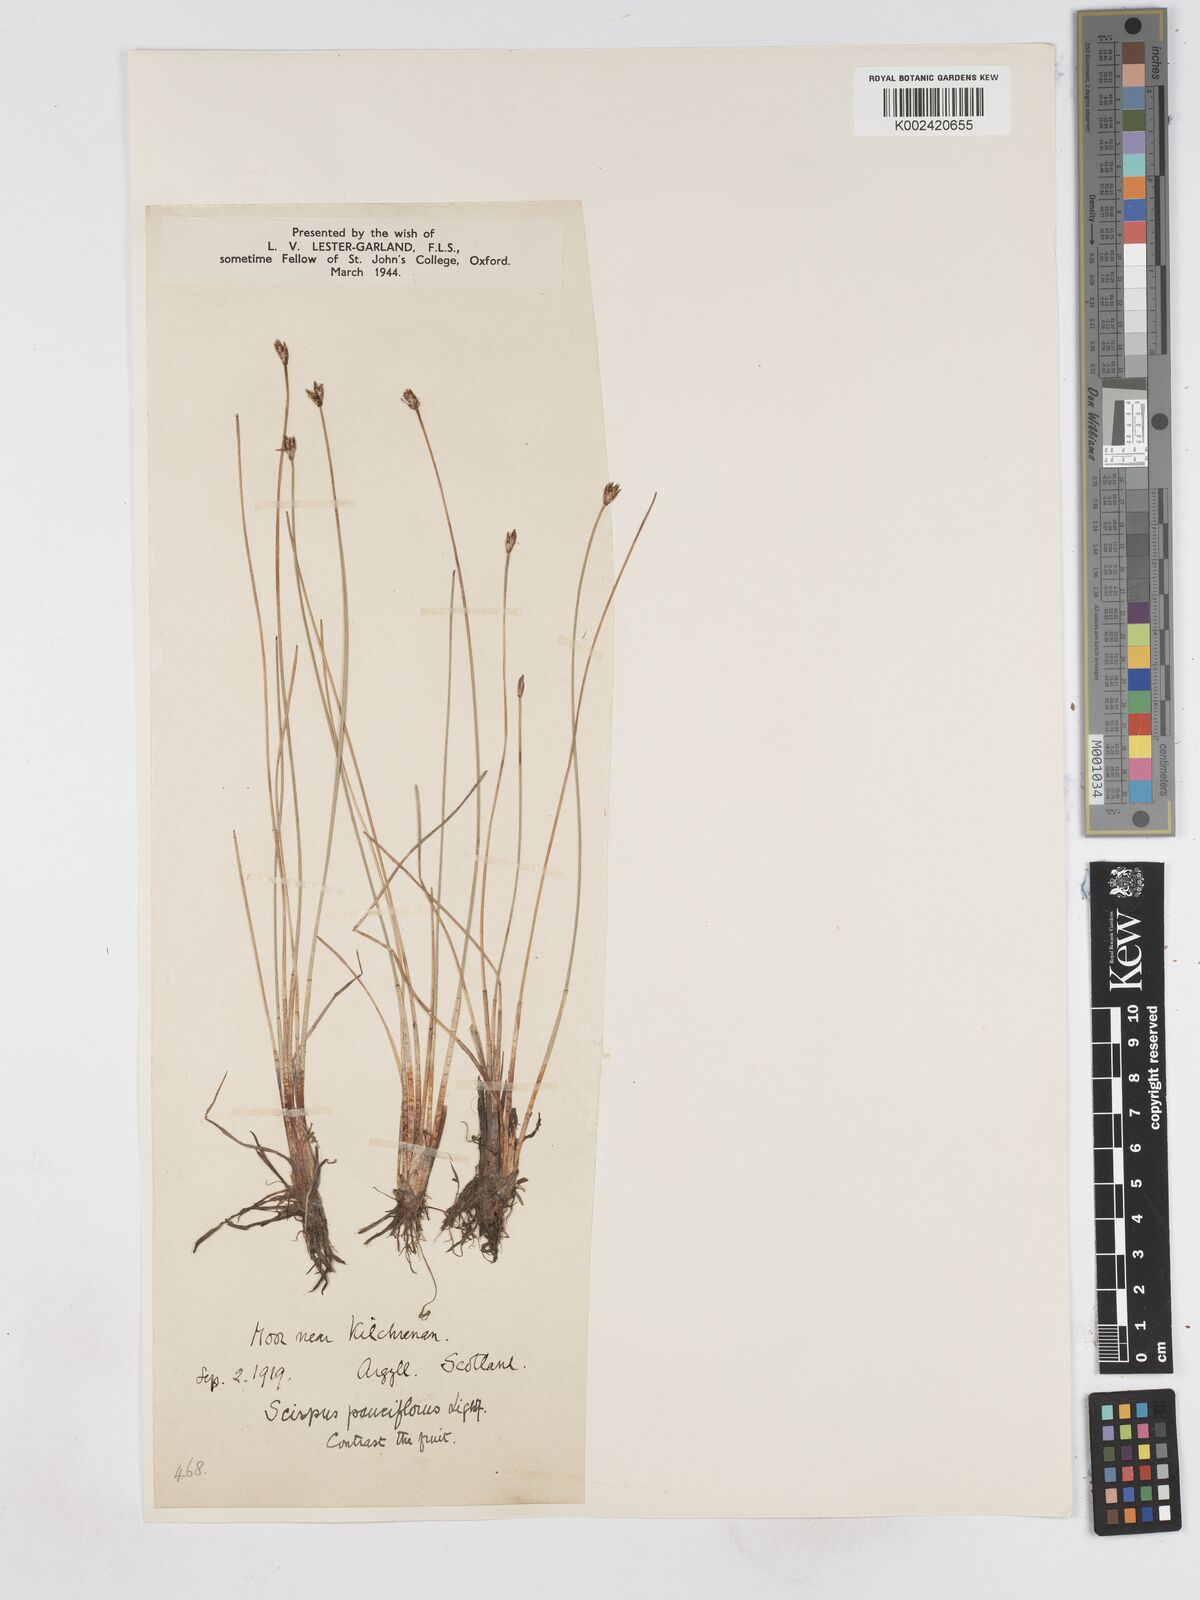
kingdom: Plantae
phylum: Tracheophyta
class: Liliopsida
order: Poales
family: Cyperaceae
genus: Eleocharis
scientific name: Eleocharis quinqueflora
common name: Few-flowered spike-rush
